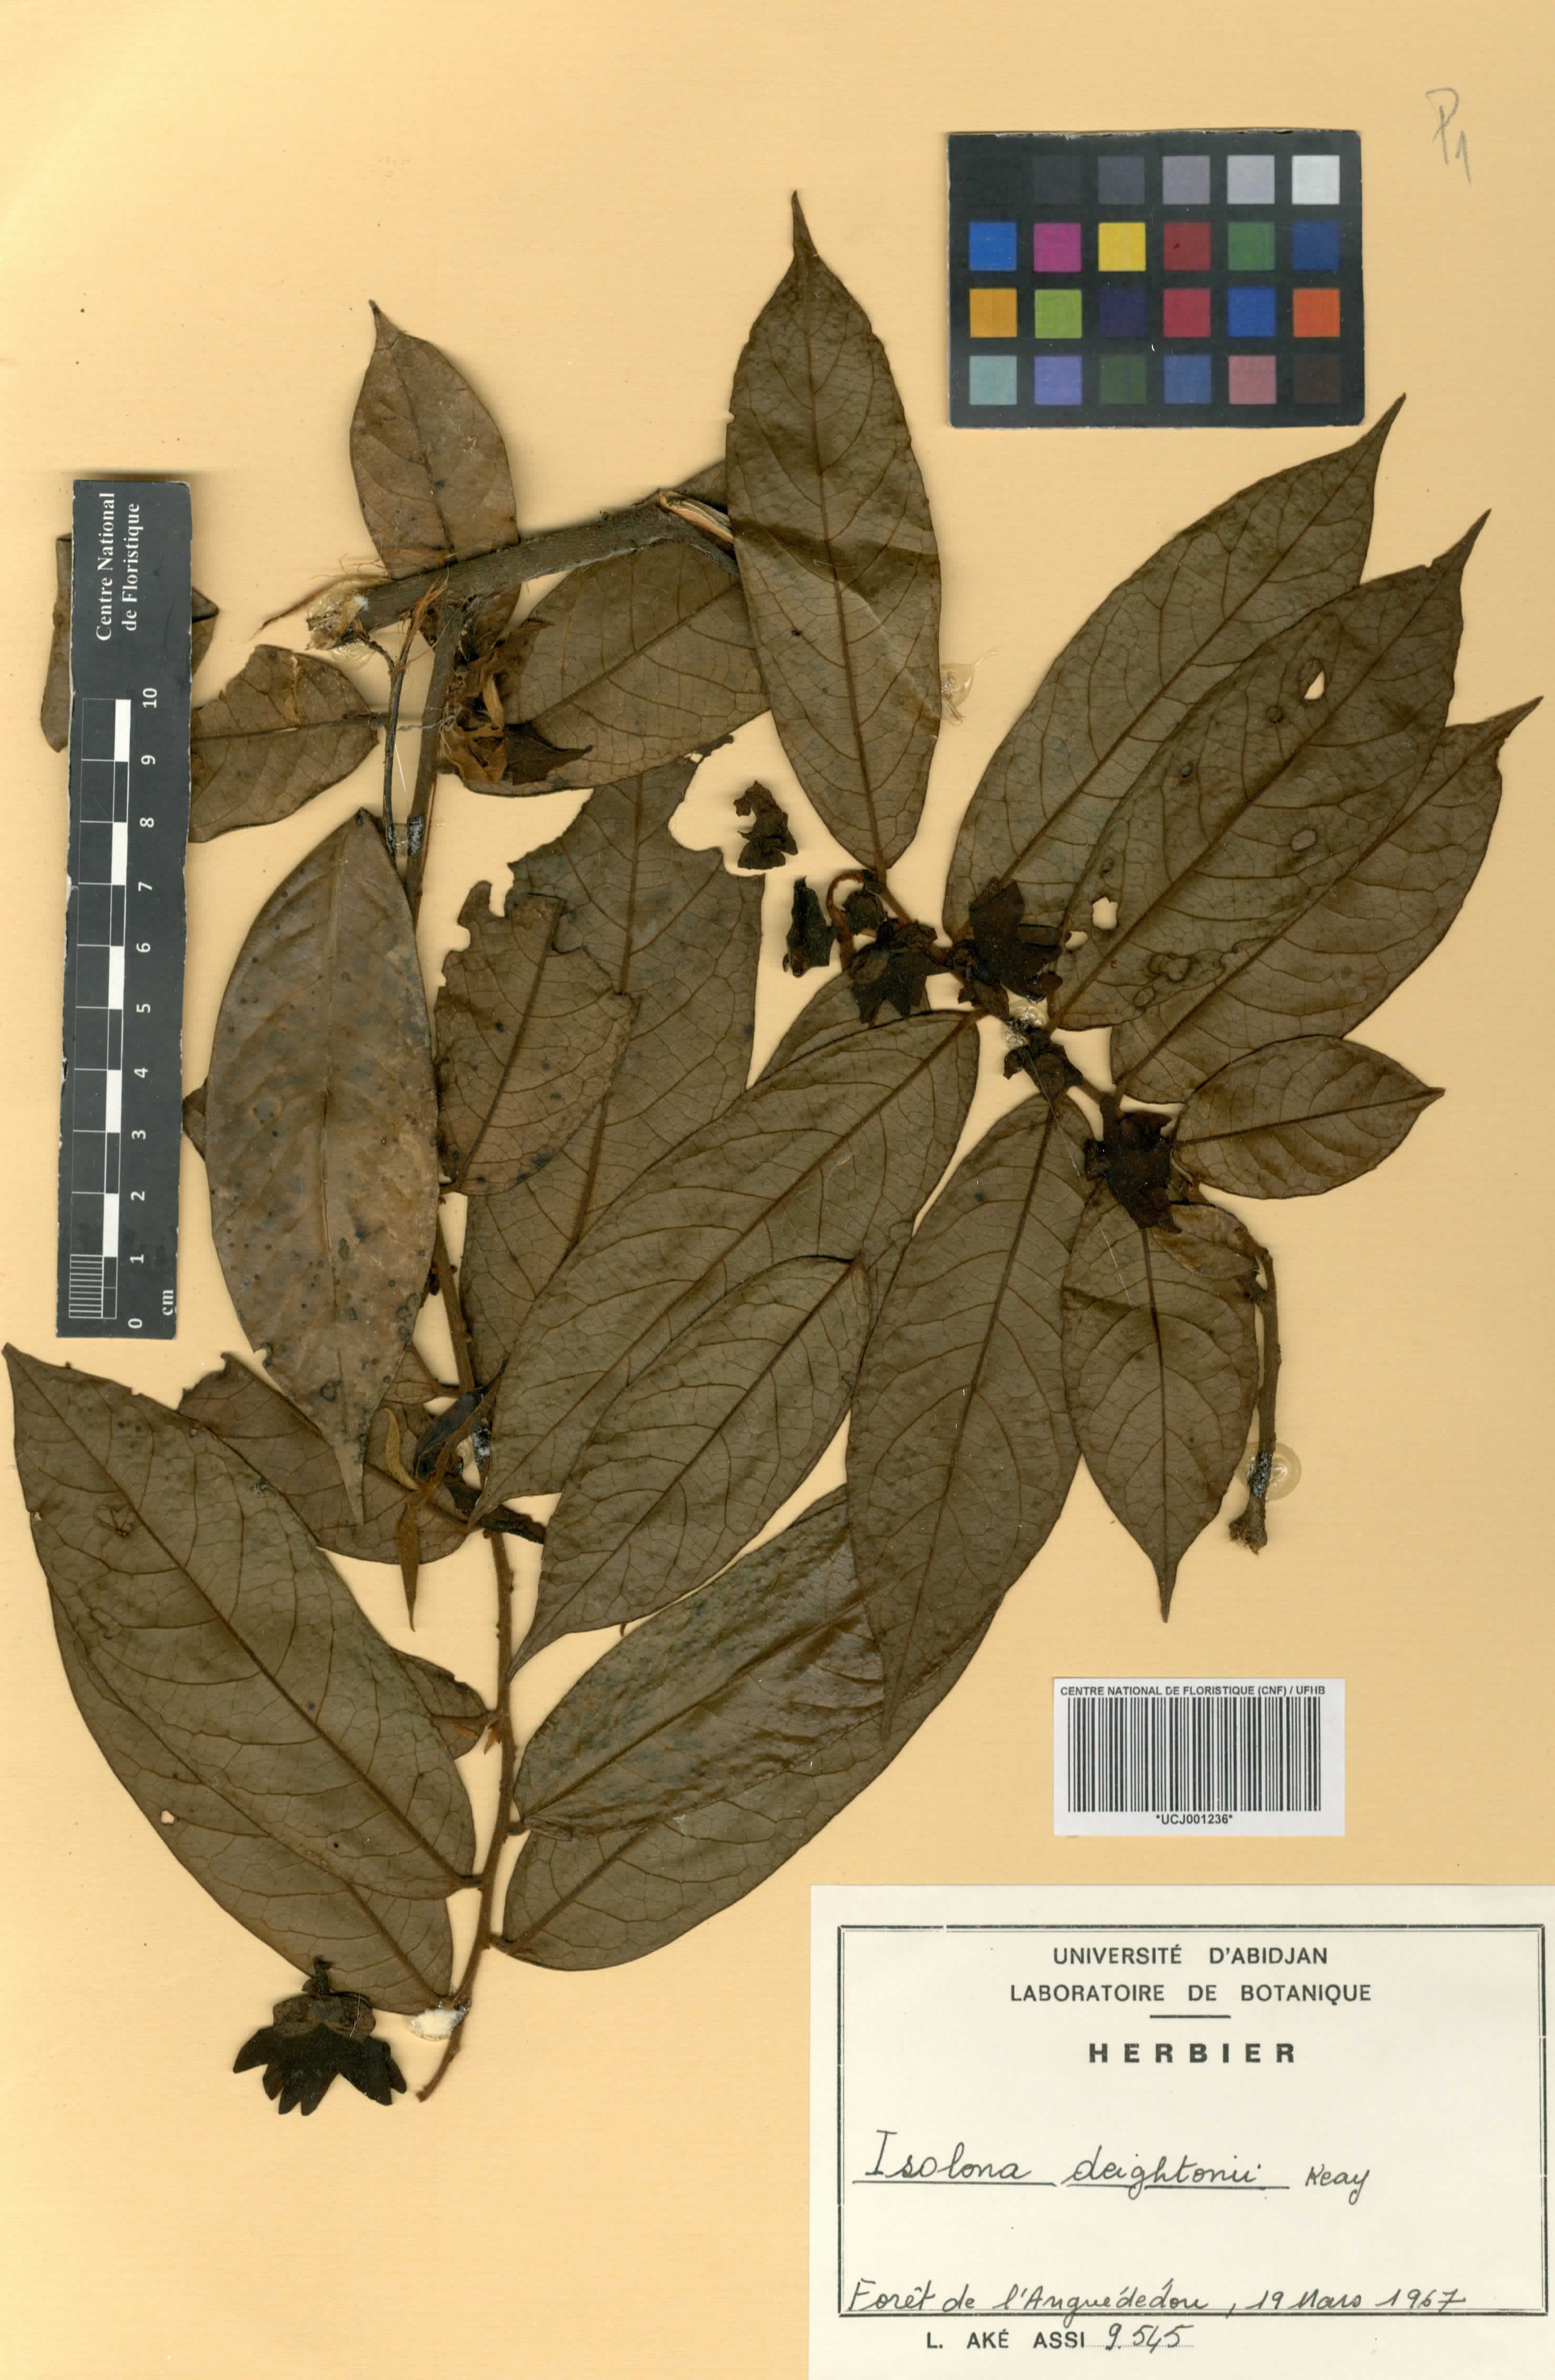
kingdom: Plantae
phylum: Tracheophyta
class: Magnoliopsida
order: Magnoliales
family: Annonaceae
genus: Isolona
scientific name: Isolona deightonii
